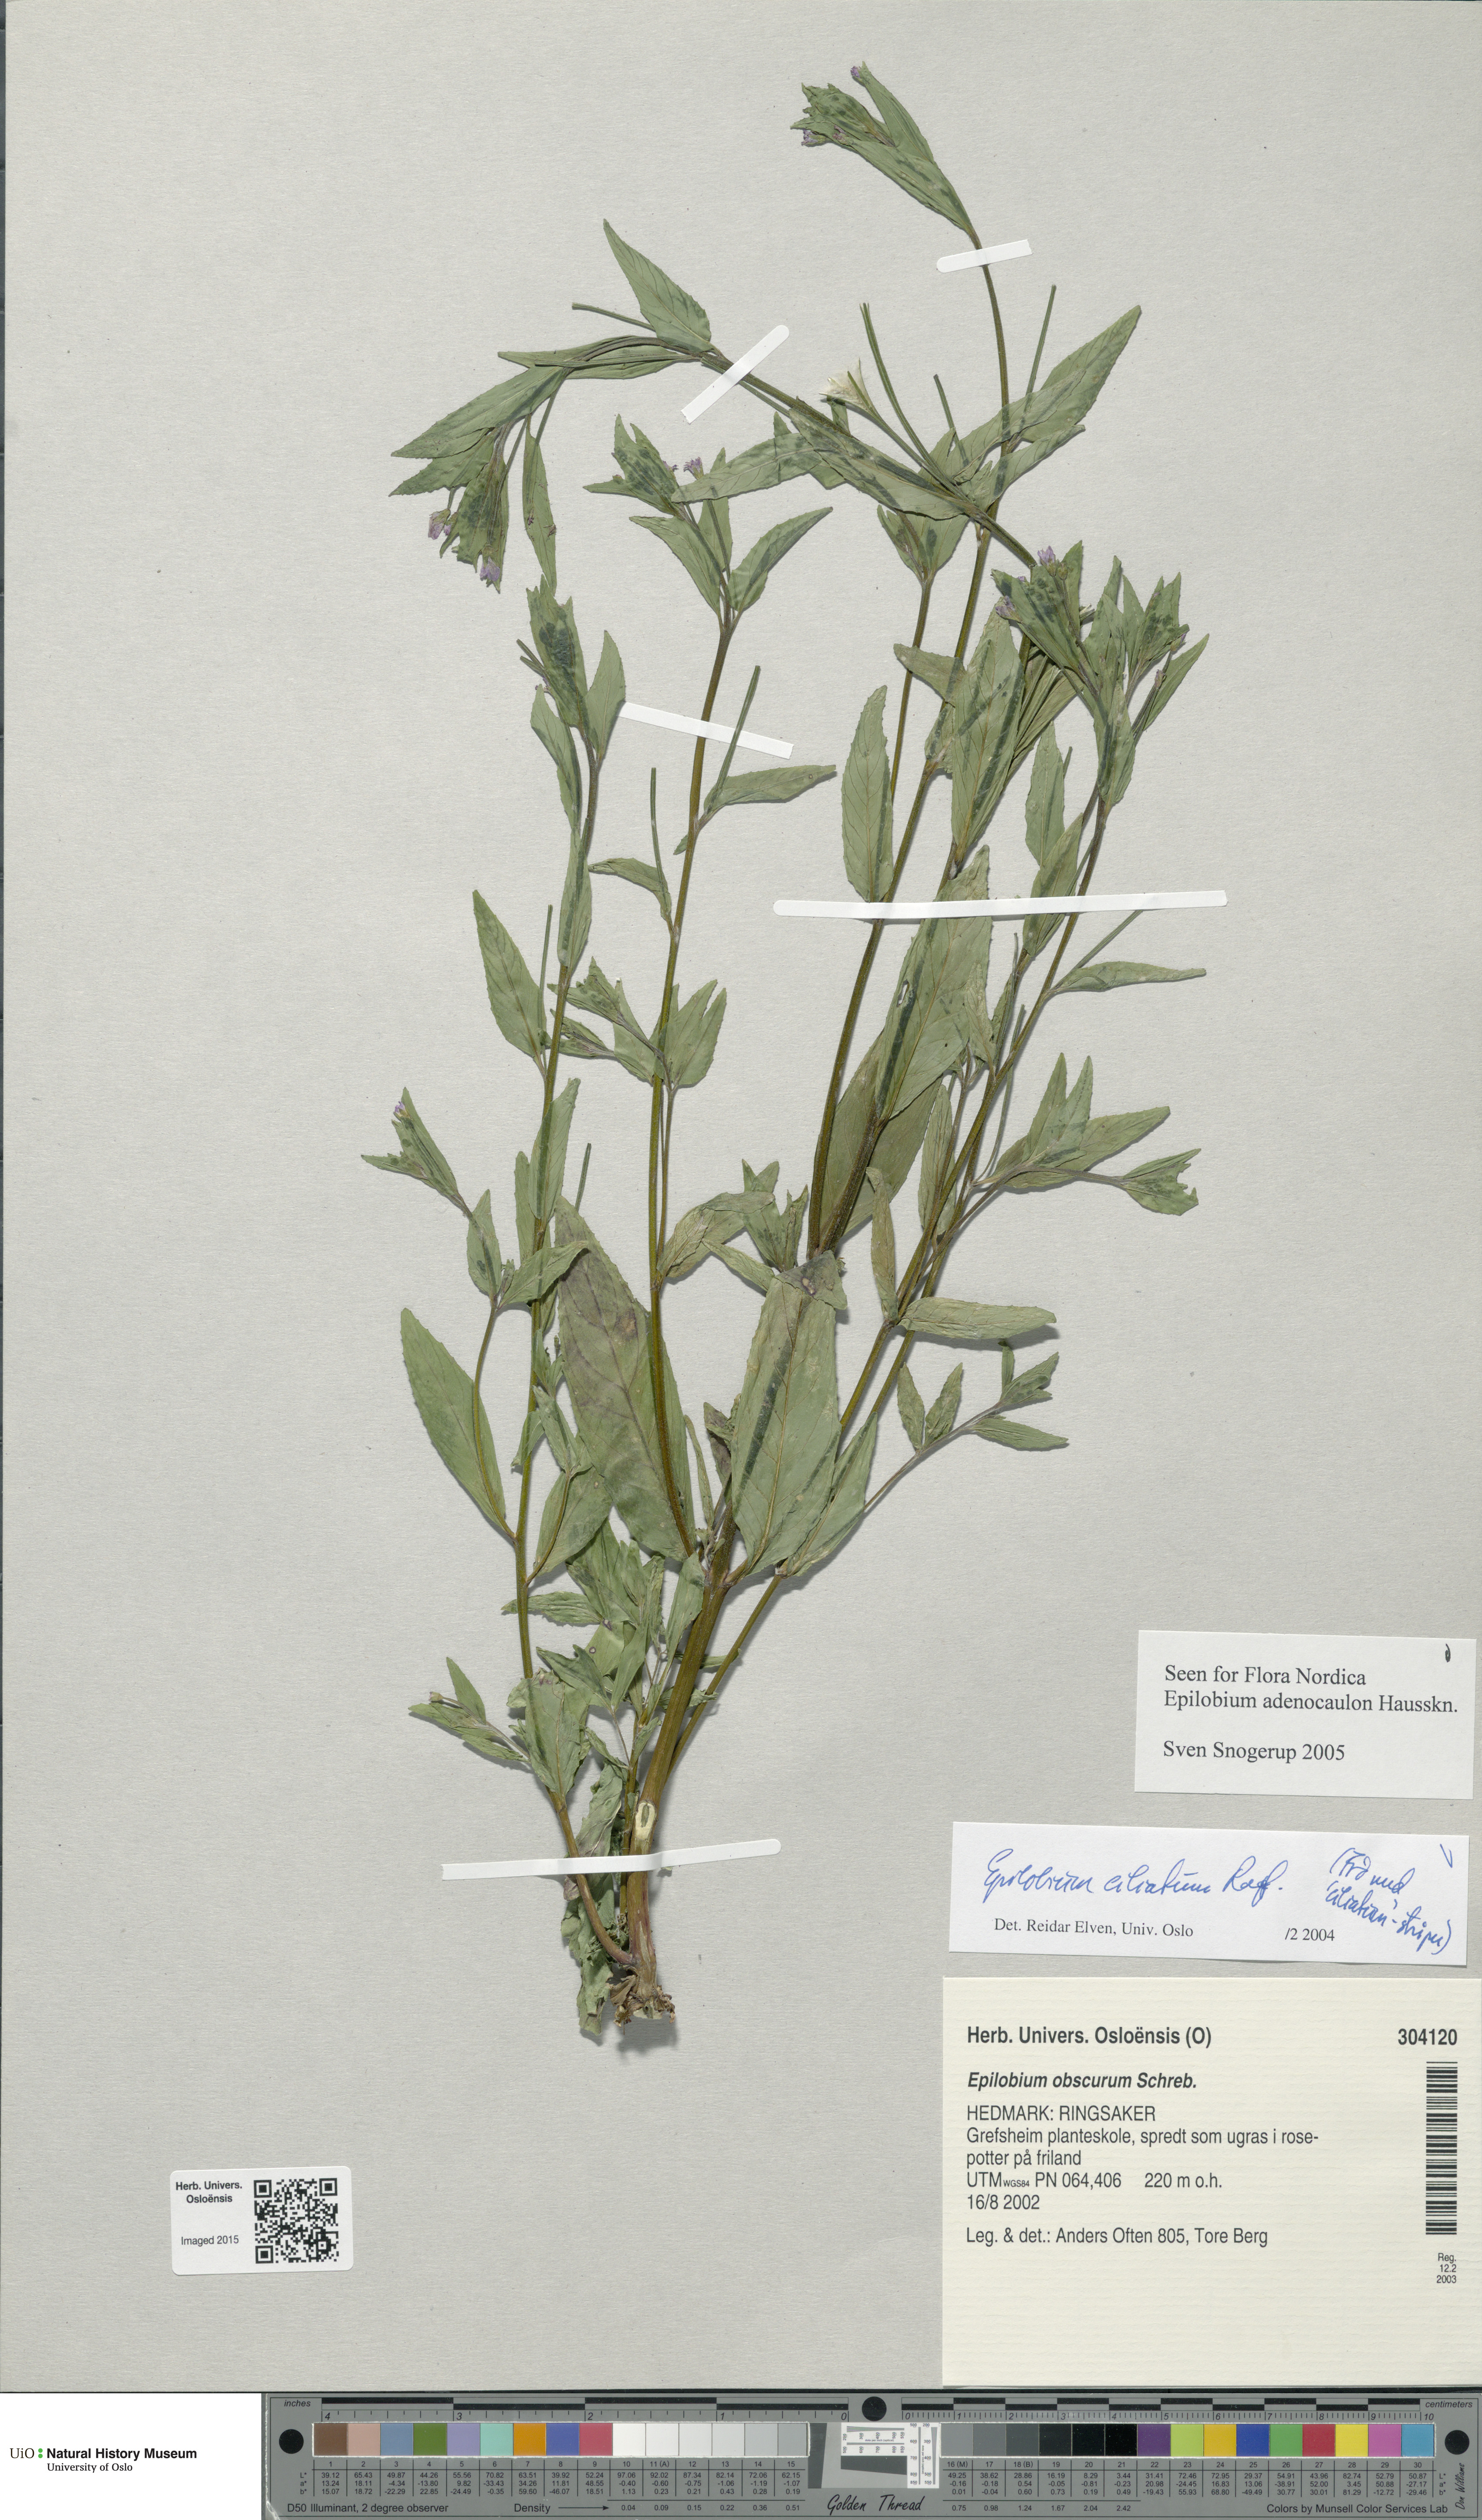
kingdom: Plantae
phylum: Tracheophyta
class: Magnoliopsida
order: Myrtales
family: Onagraceae
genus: Epilobium
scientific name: Epilobium ciliatum
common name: American willowherb
